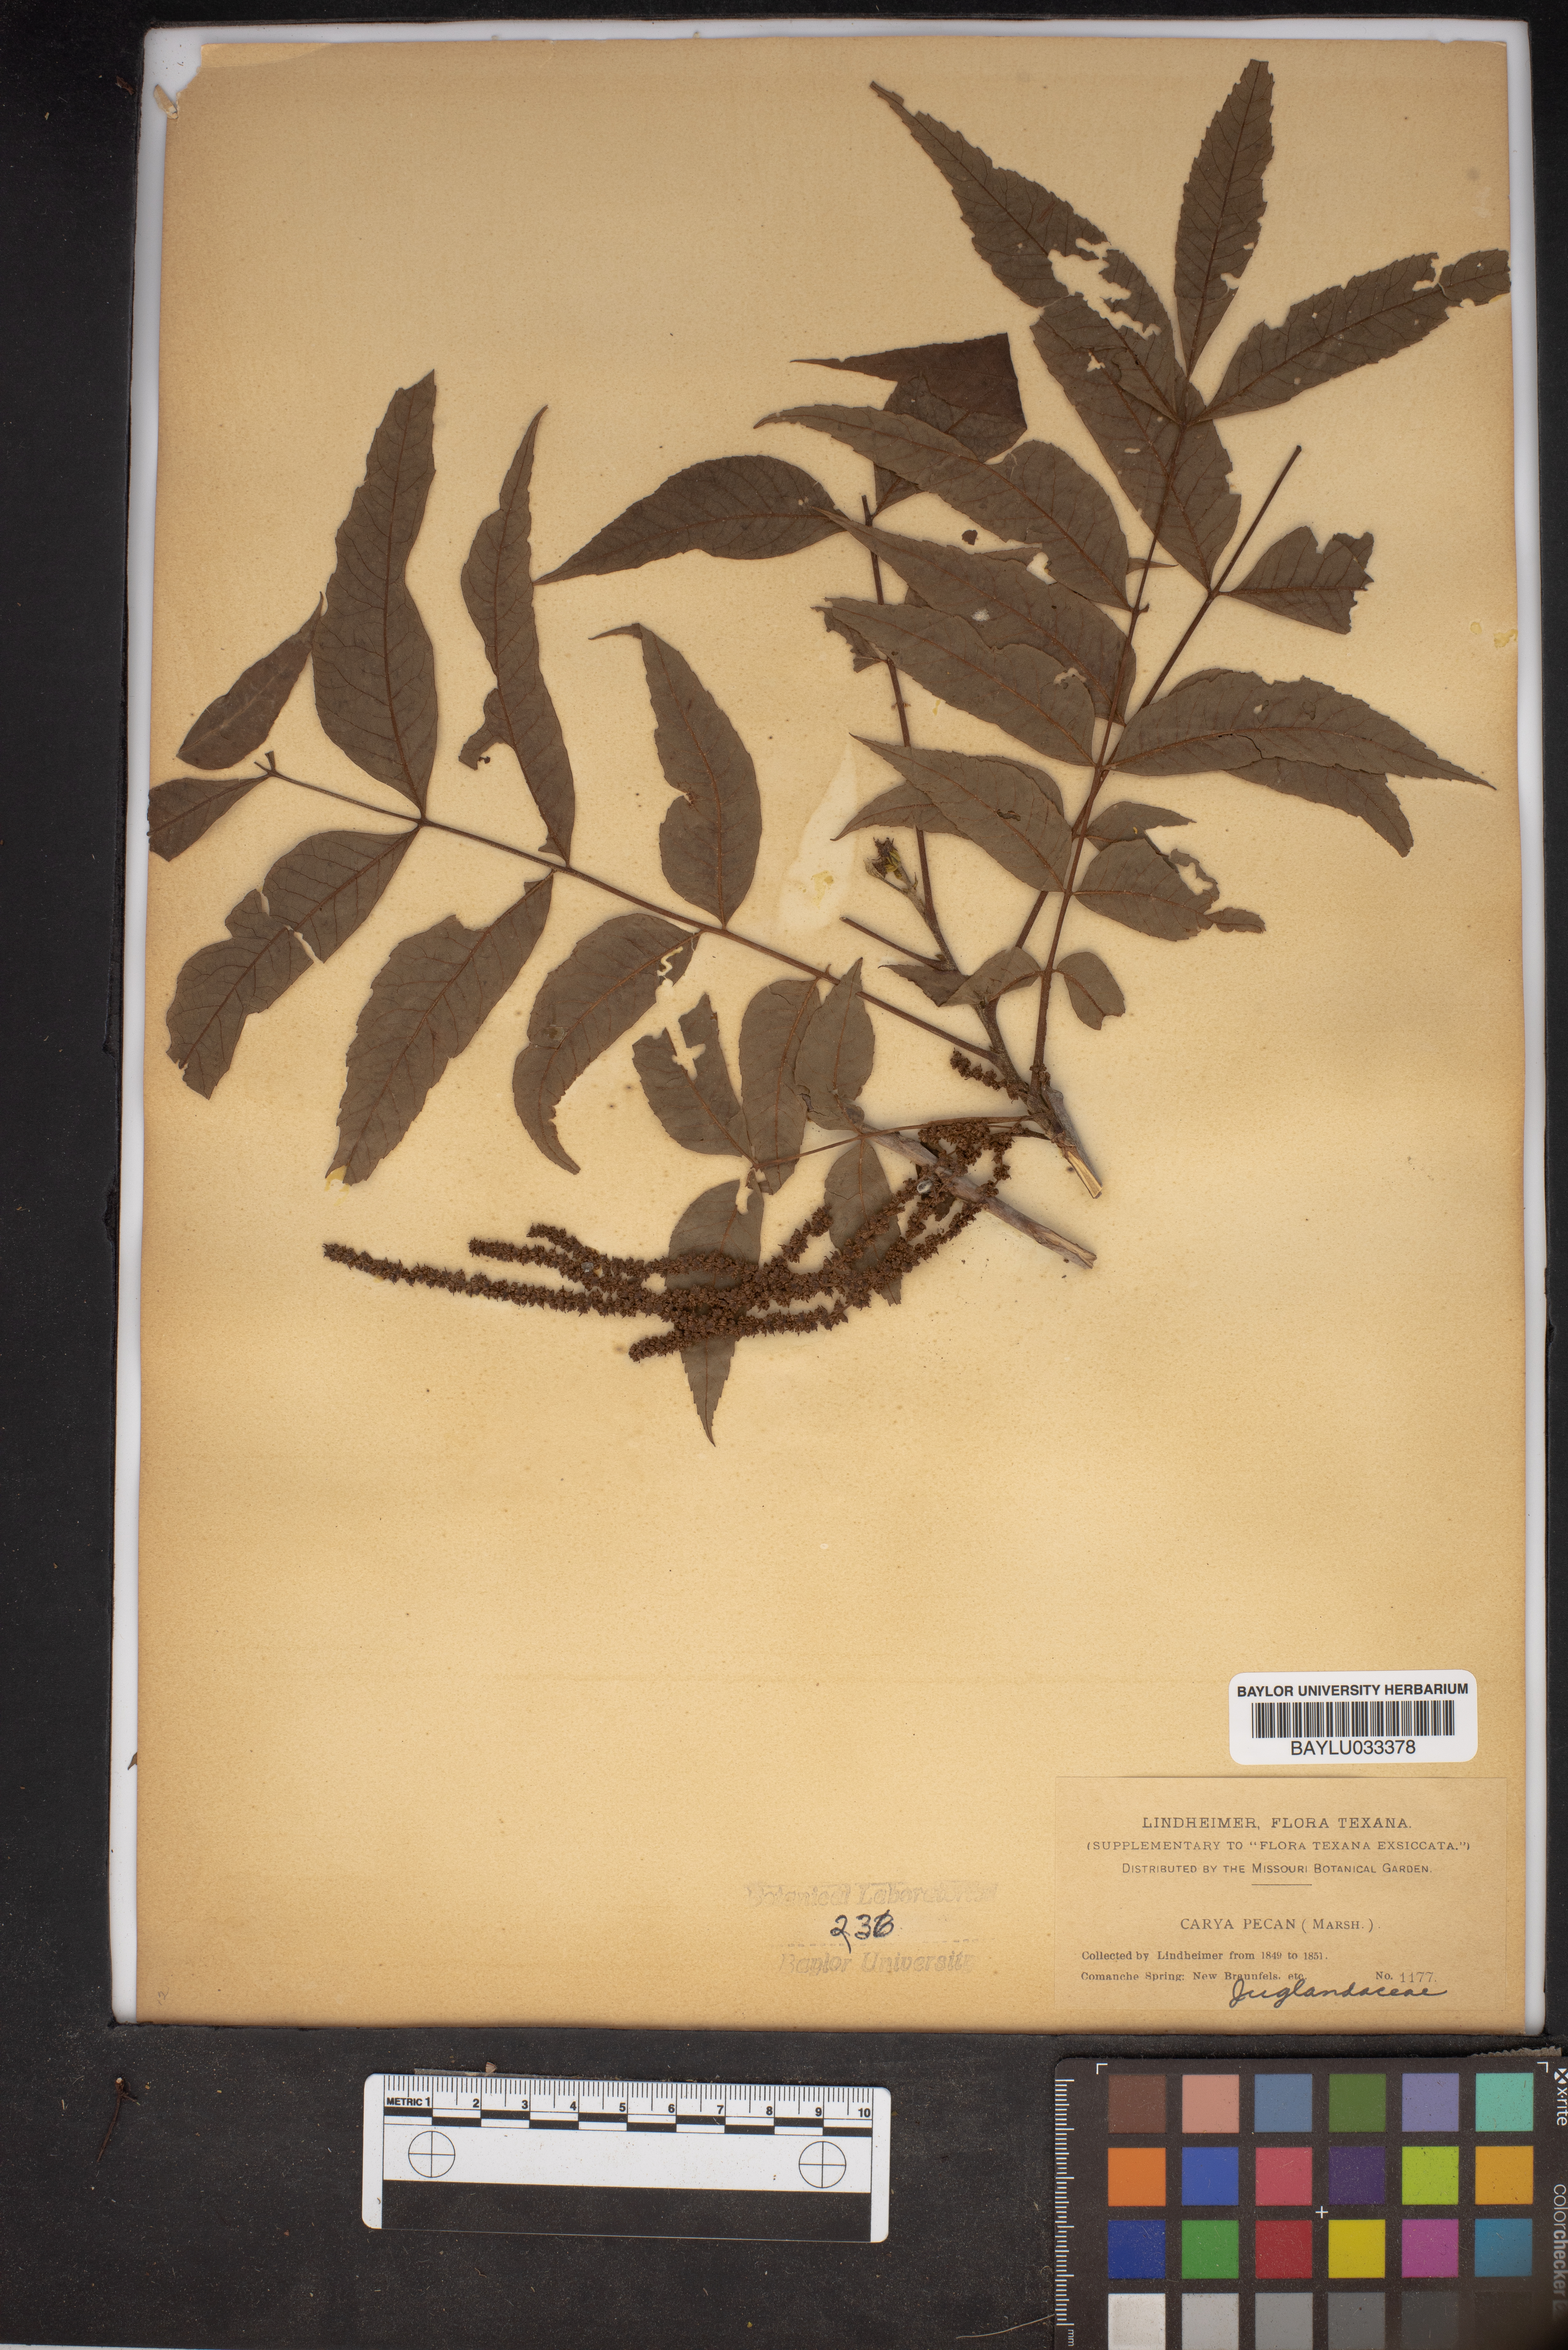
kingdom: Plantae
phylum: Tracheophyta
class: Magnoliopsida
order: Fagales
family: Juglandaceae
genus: Carya
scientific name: Carya illinoinensis
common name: Pecan
